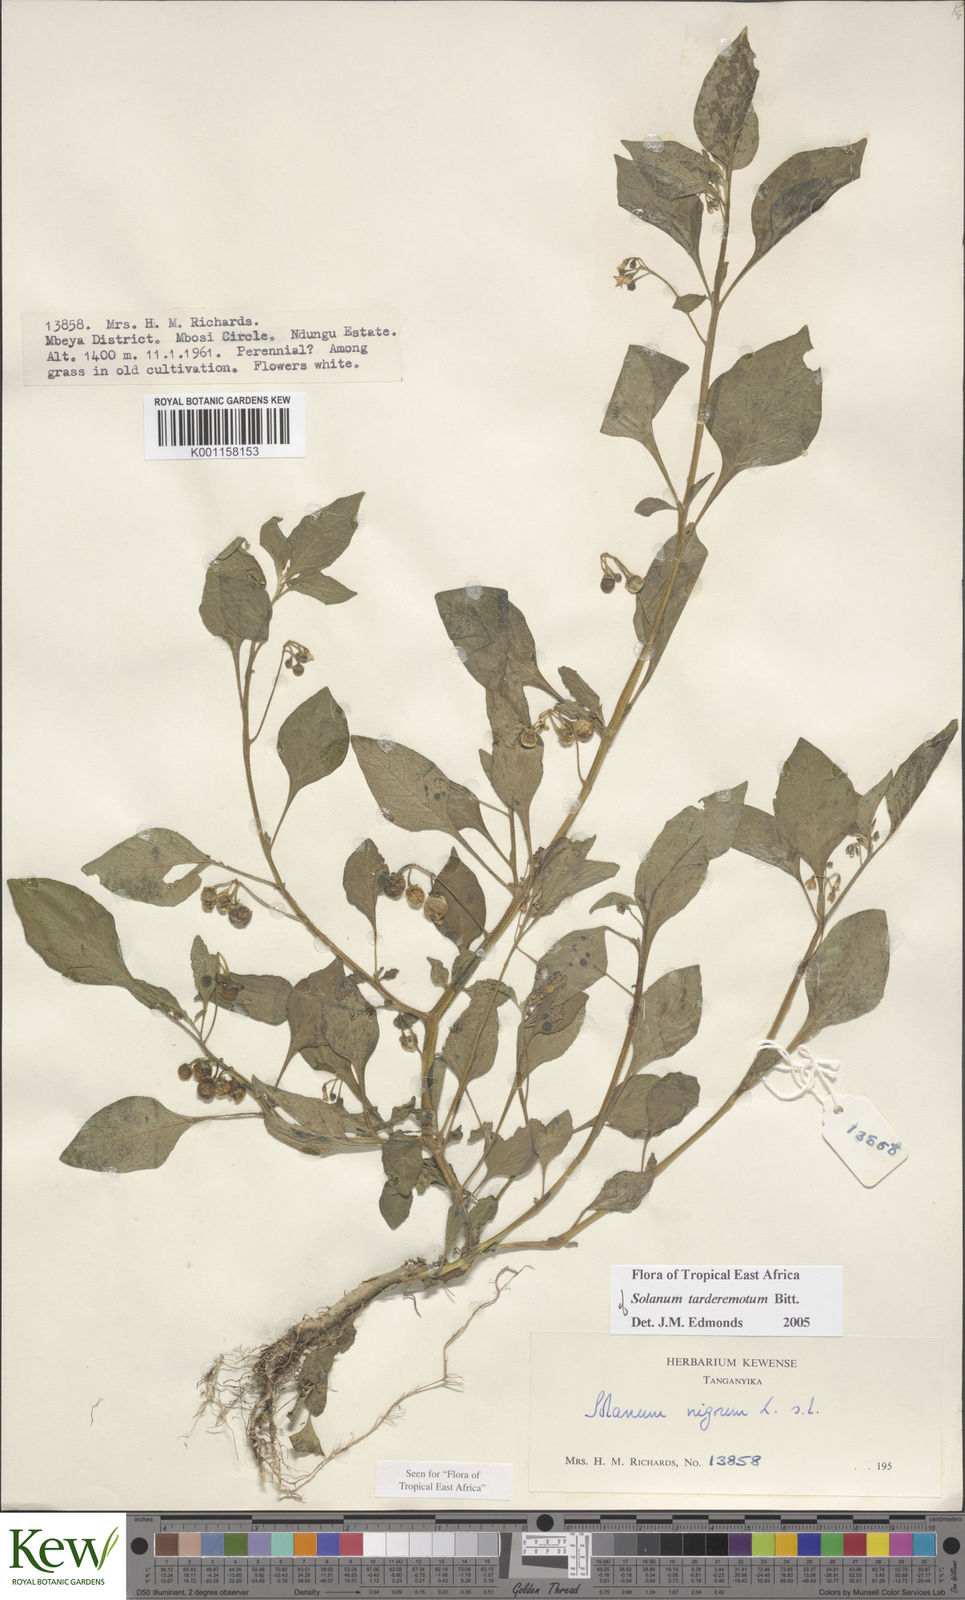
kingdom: Plantae
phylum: Tracheophyta
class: Magnoliopsida
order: Solanales
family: Solanaceae
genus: Solanum
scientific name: Solanum tarderemotum
